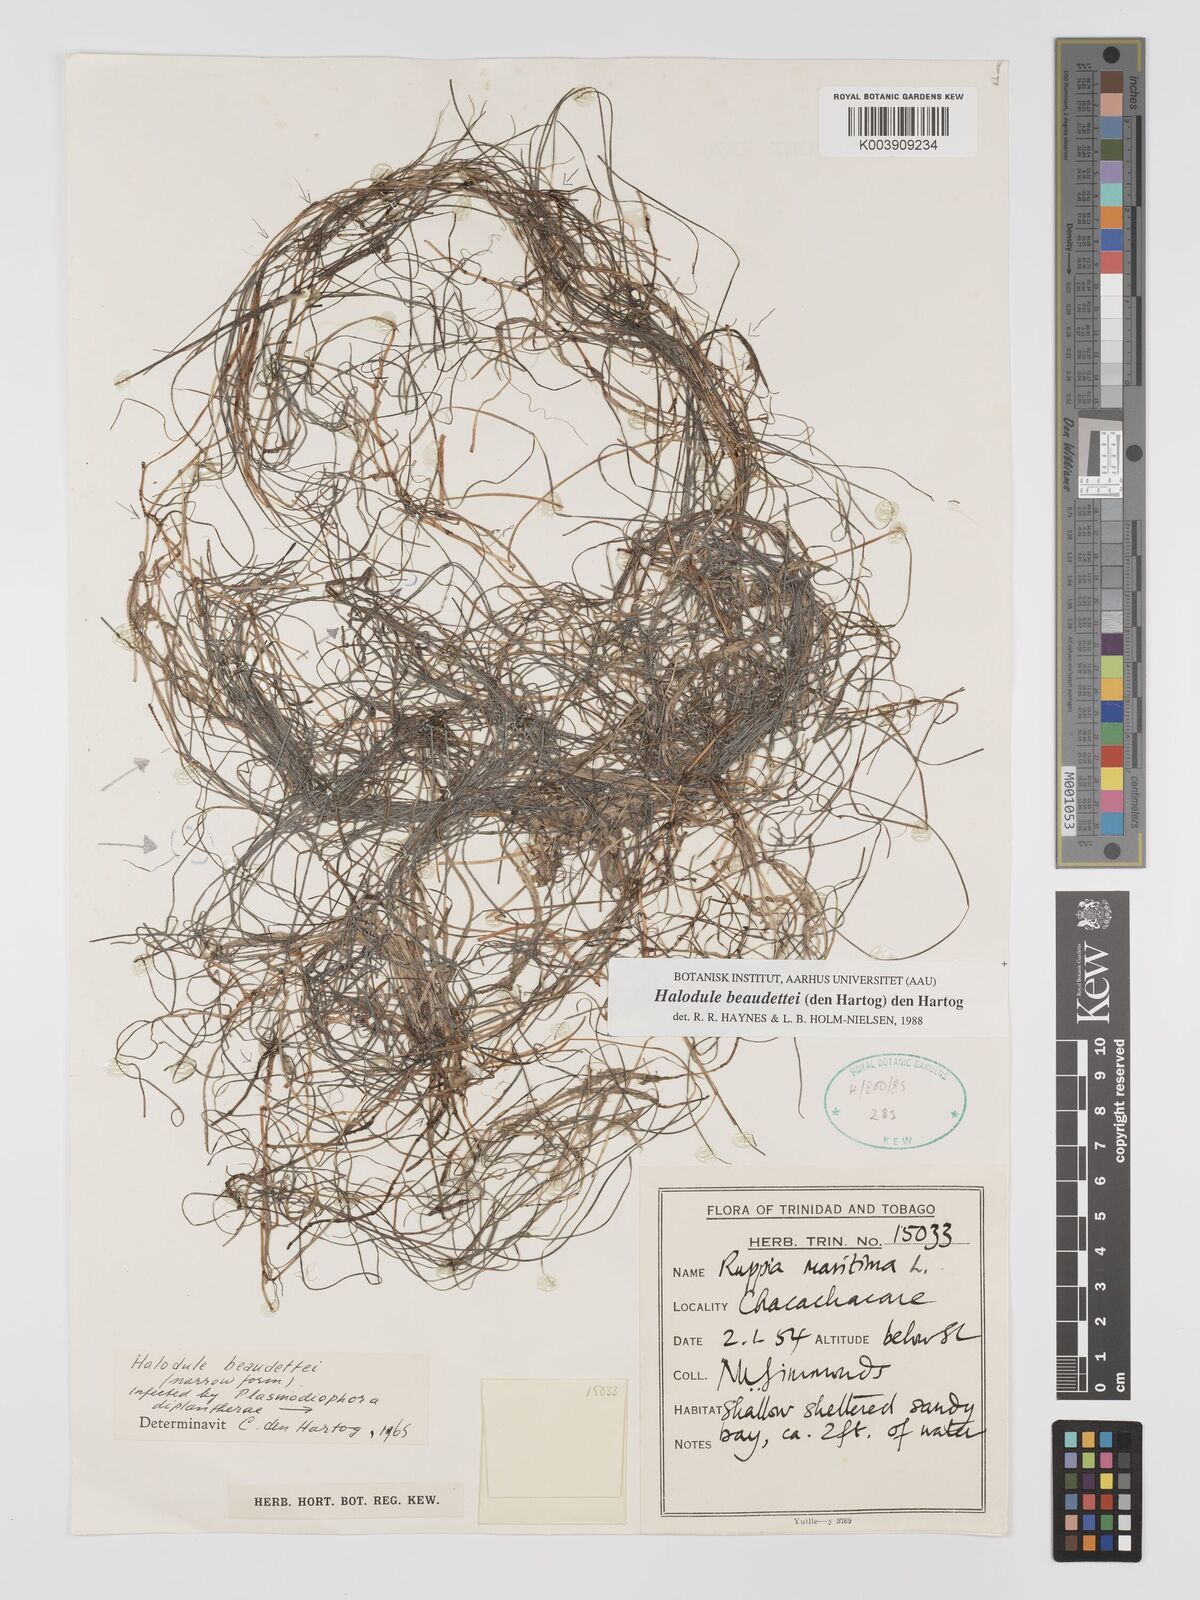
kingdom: Plantae
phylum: Tracheophyta
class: Liliopsida
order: Alismatales
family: Cymodoceaceae
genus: Halodule
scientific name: Halodule wrightii
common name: Shoalgrass
